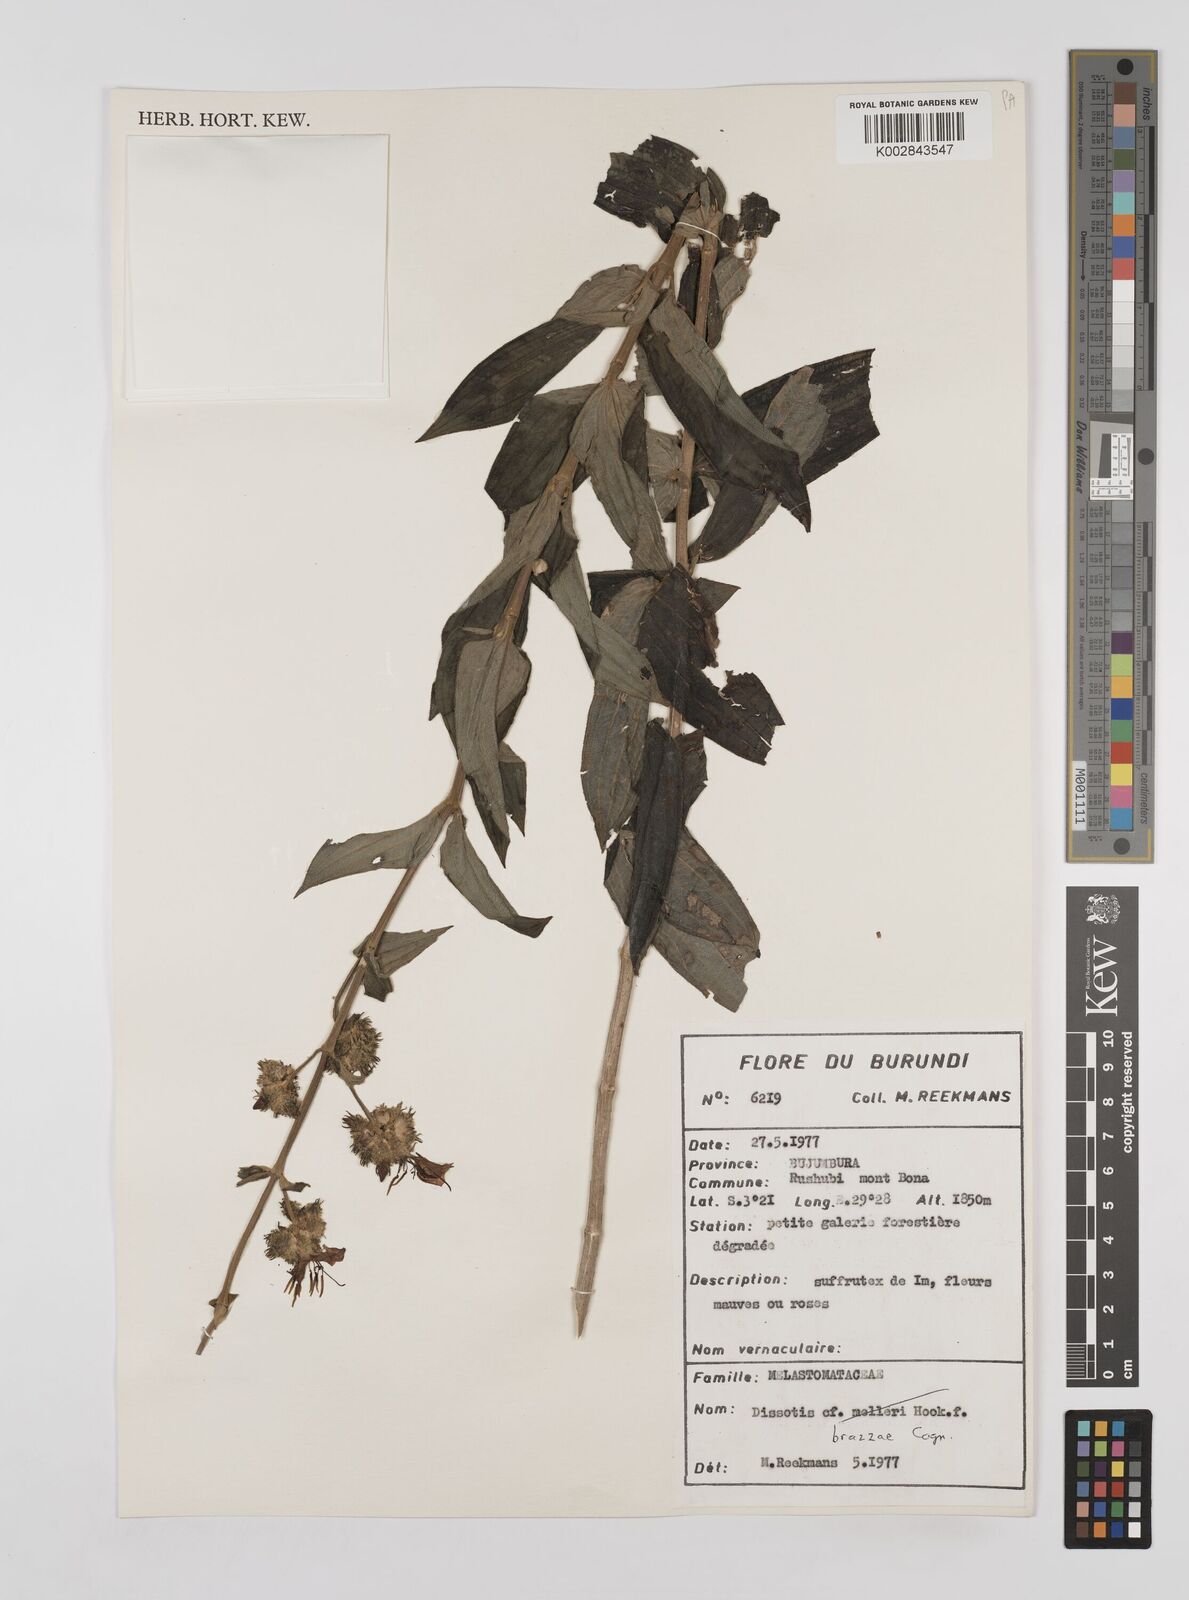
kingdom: Plantae
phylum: Tracheophyta
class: Magnoliopsida
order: Myrtales
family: Melastomataceae
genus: Dupineta
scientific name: Dupineta brazzae
